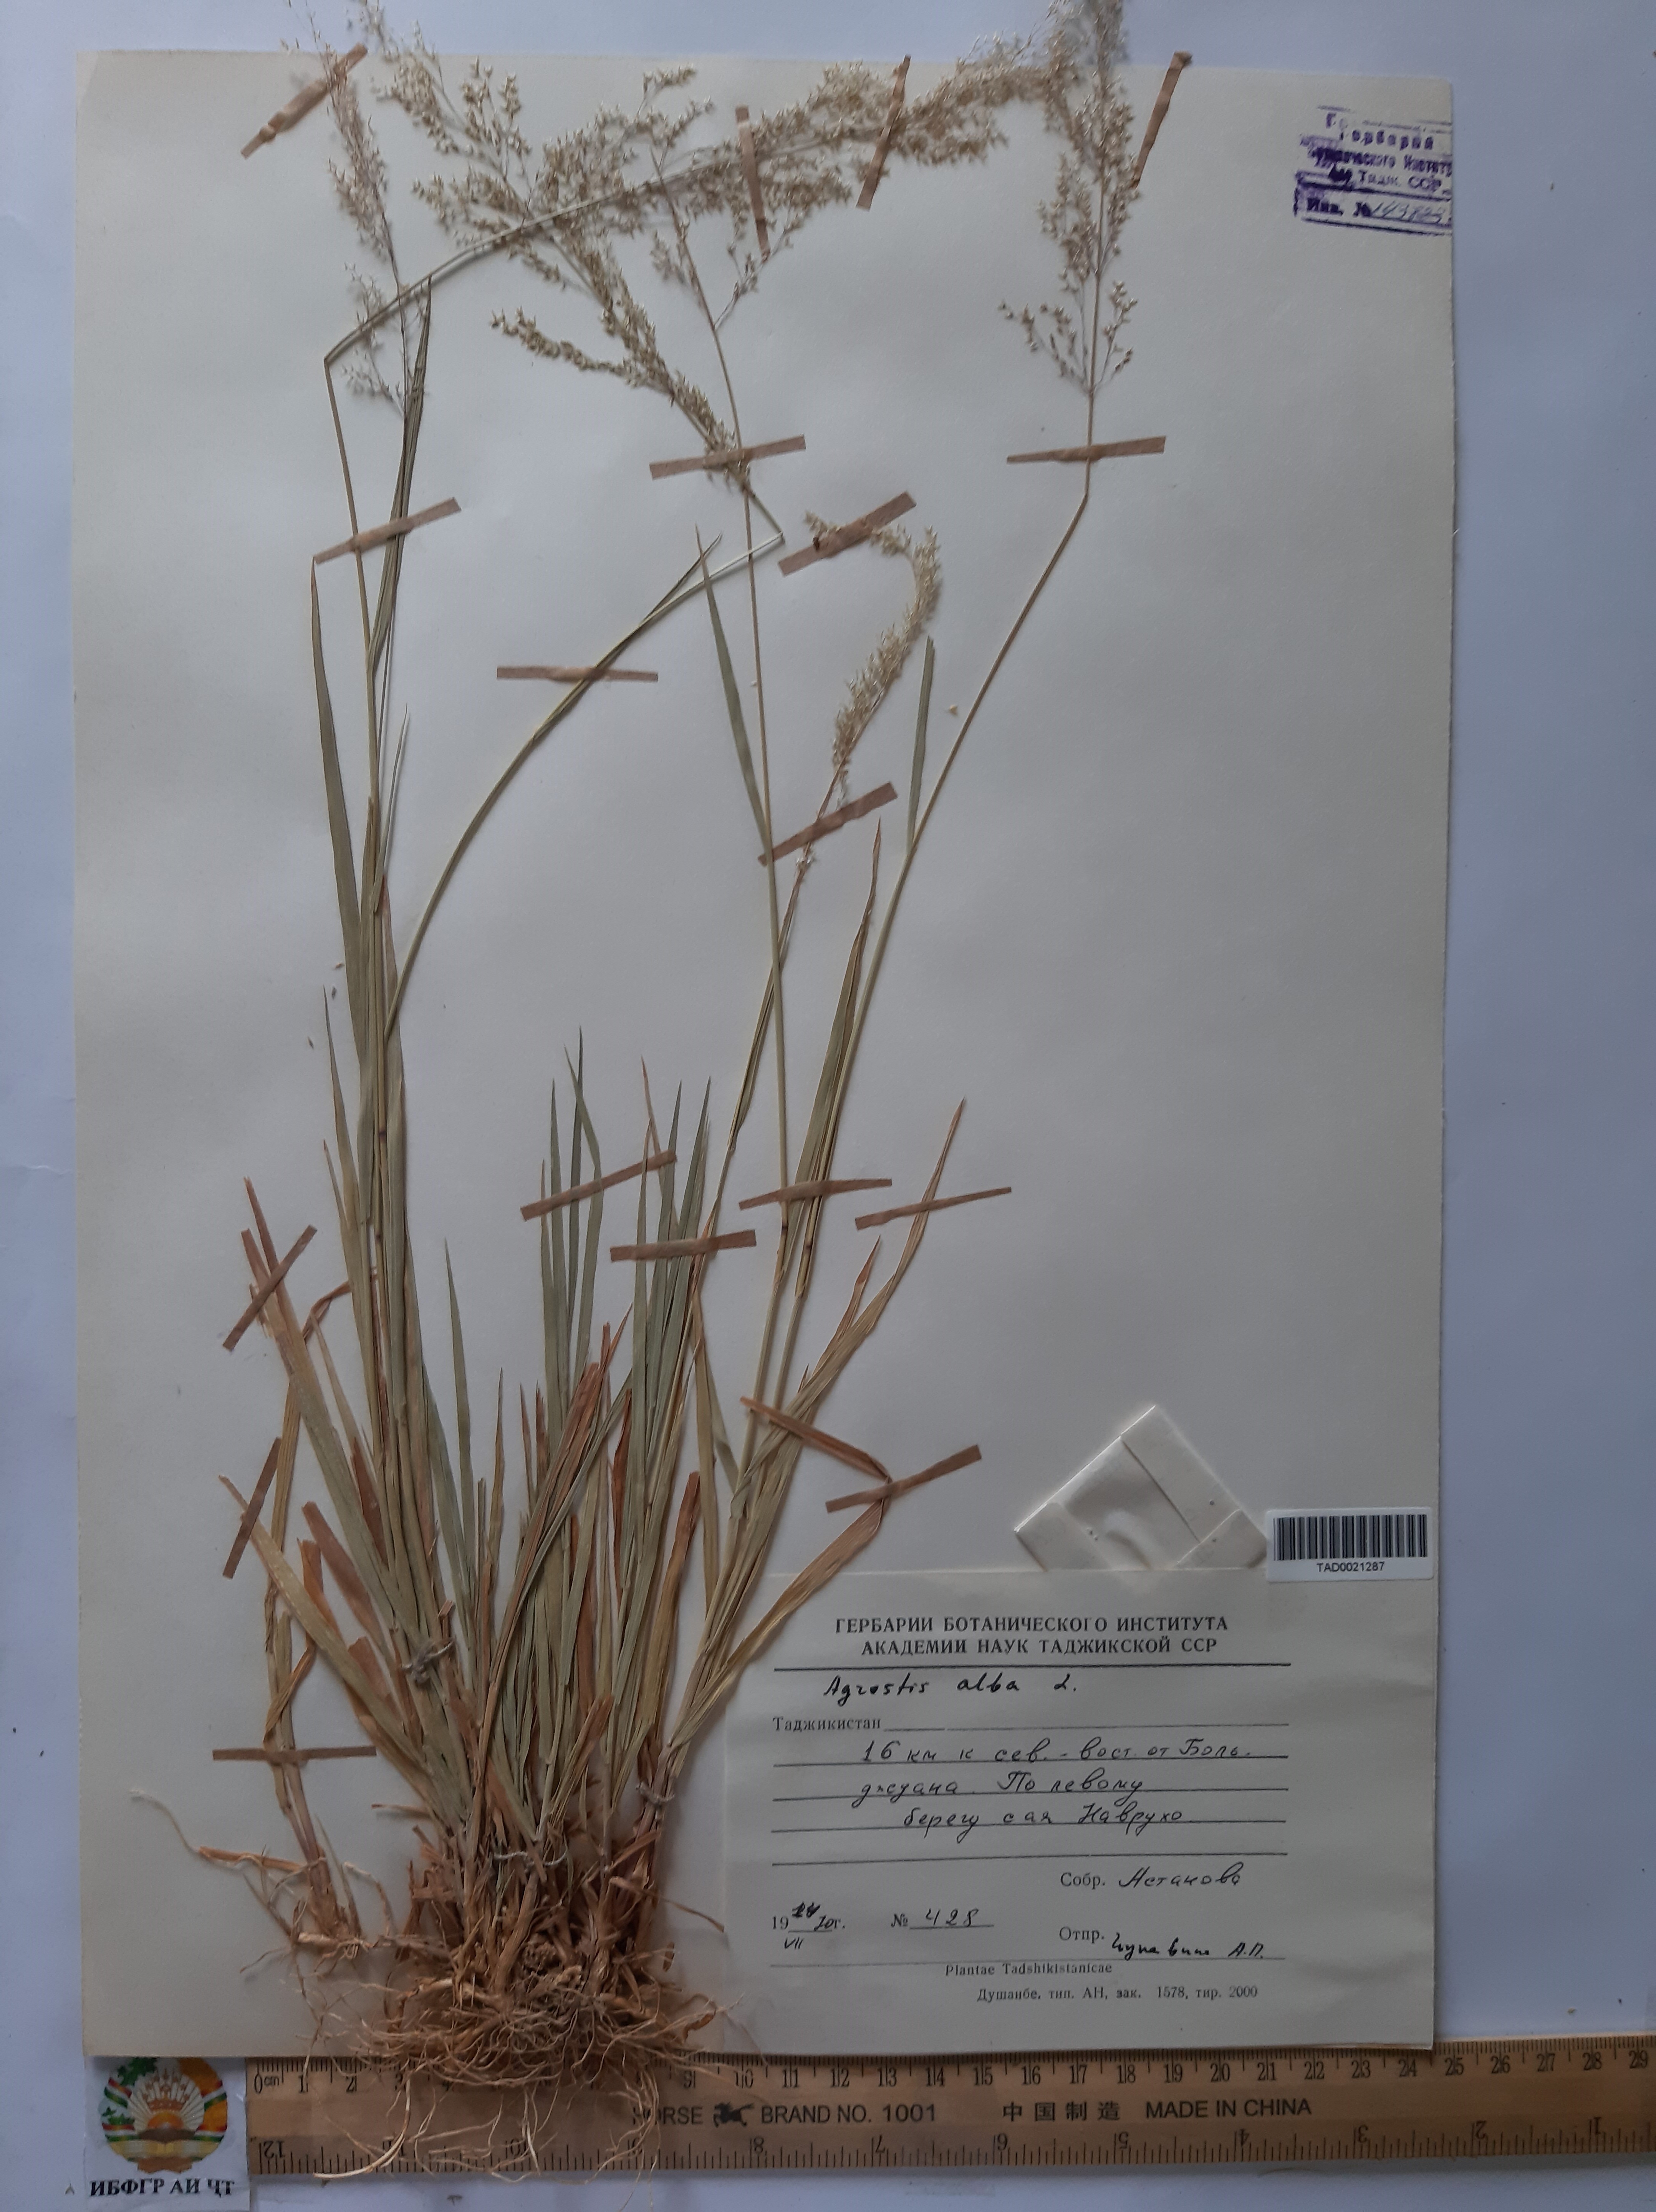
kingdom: Plantae
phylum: Tracheophyta
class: Liliopsida
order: Poales
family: Poaceae
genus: Poa
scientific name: Poa nemoralis
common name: Wood bluegrass
